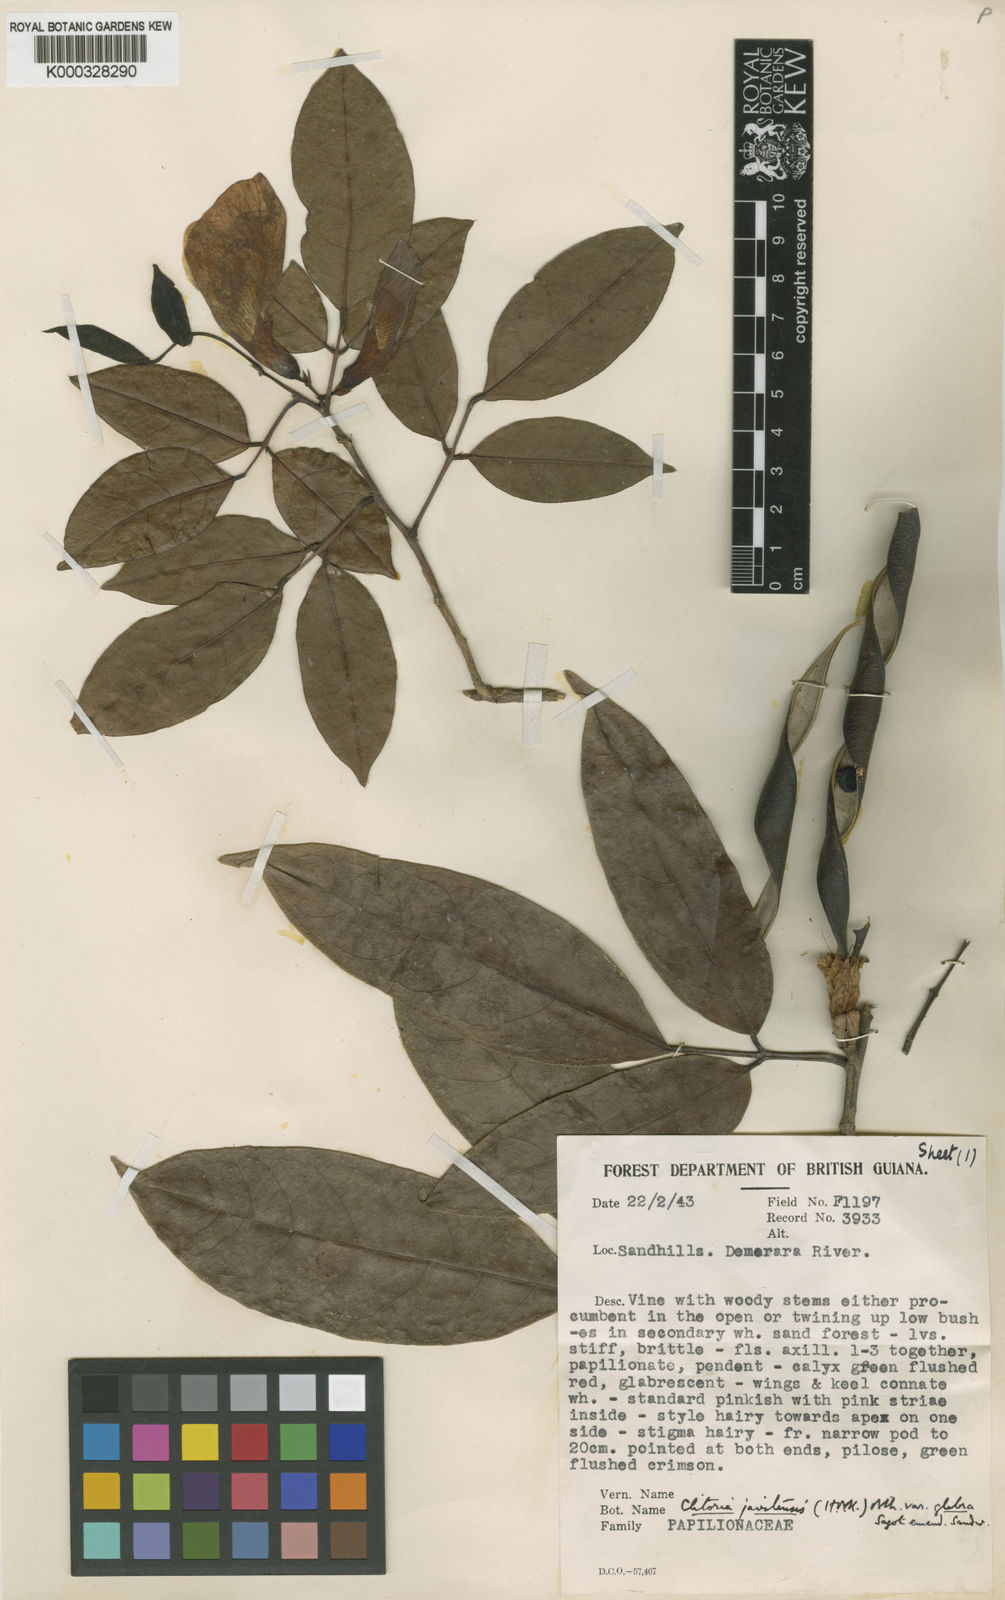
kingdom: Plantae
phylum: Tracheophyta
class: Magnoliopsida
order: Fabales
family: Fabaceae
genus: Clitoria
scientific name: Clitoria sagotii
